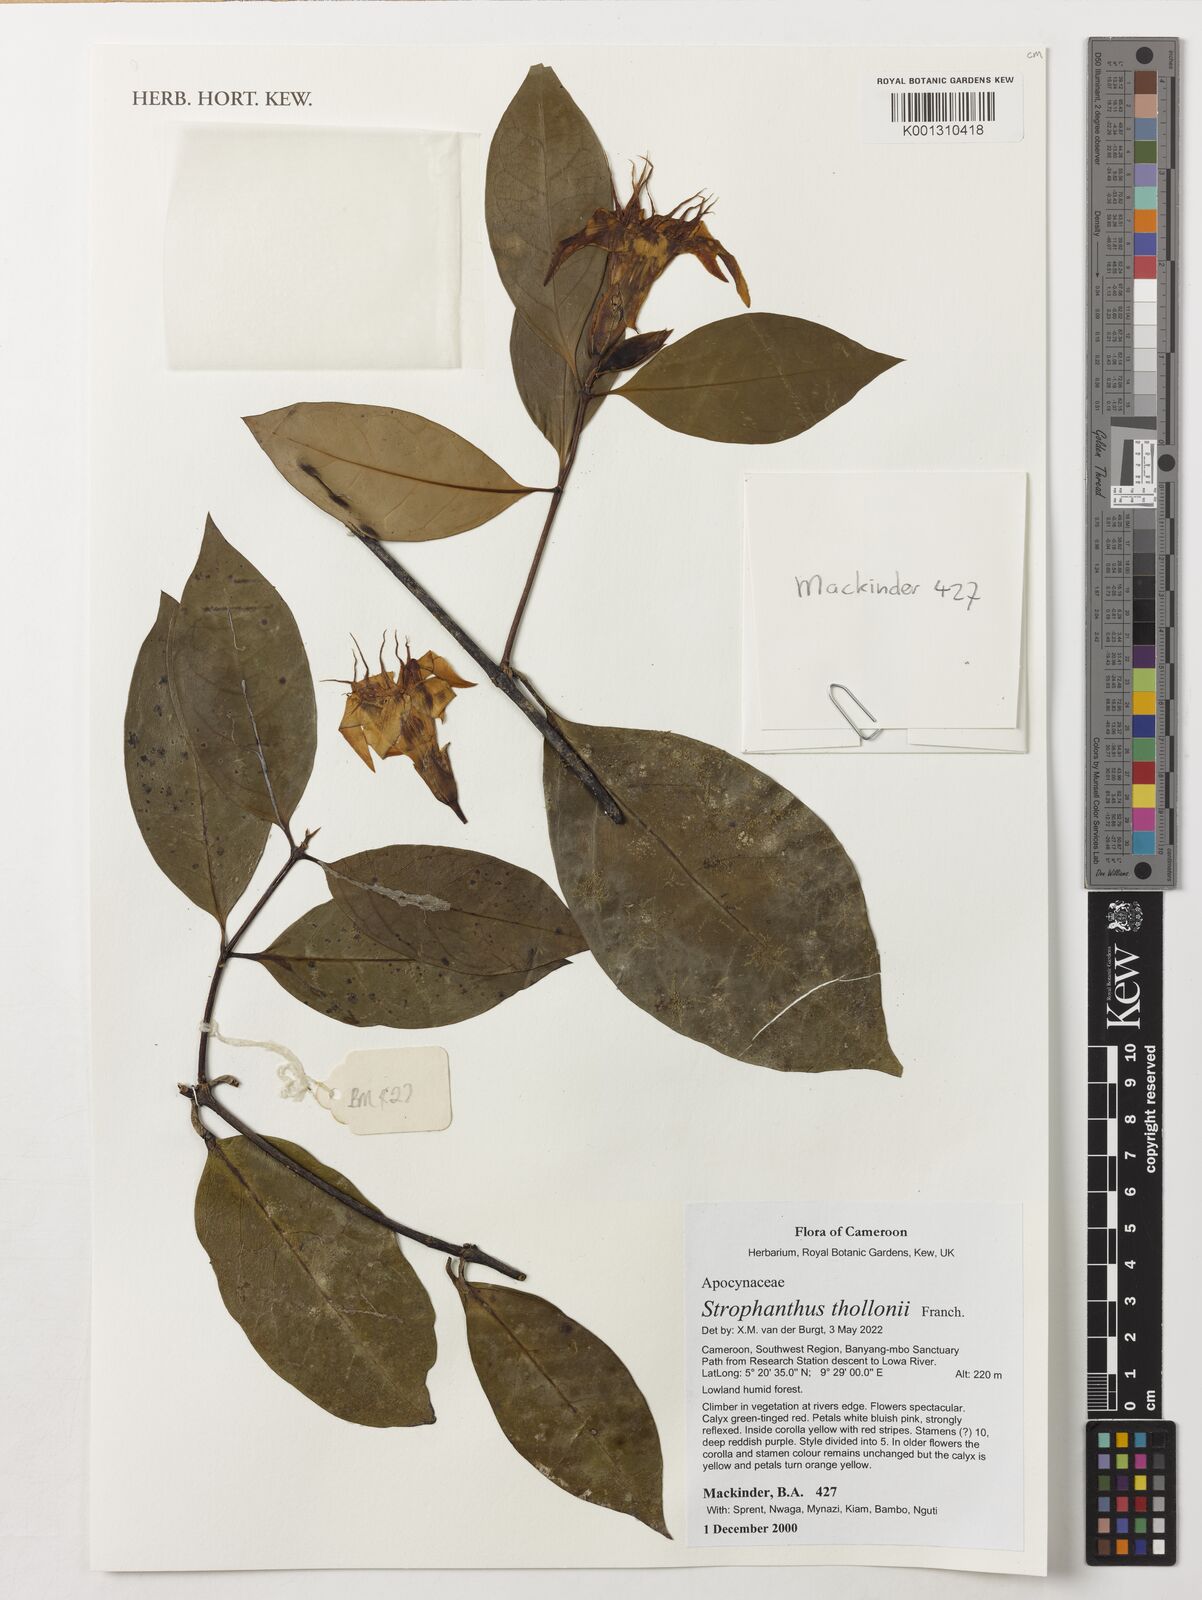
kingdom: Plantae
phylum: Tracheophyta
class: Magnoliopsida
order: Gentianales
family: Apocynaceae
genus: Strophanthus
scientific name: Strophanthus thollonii
